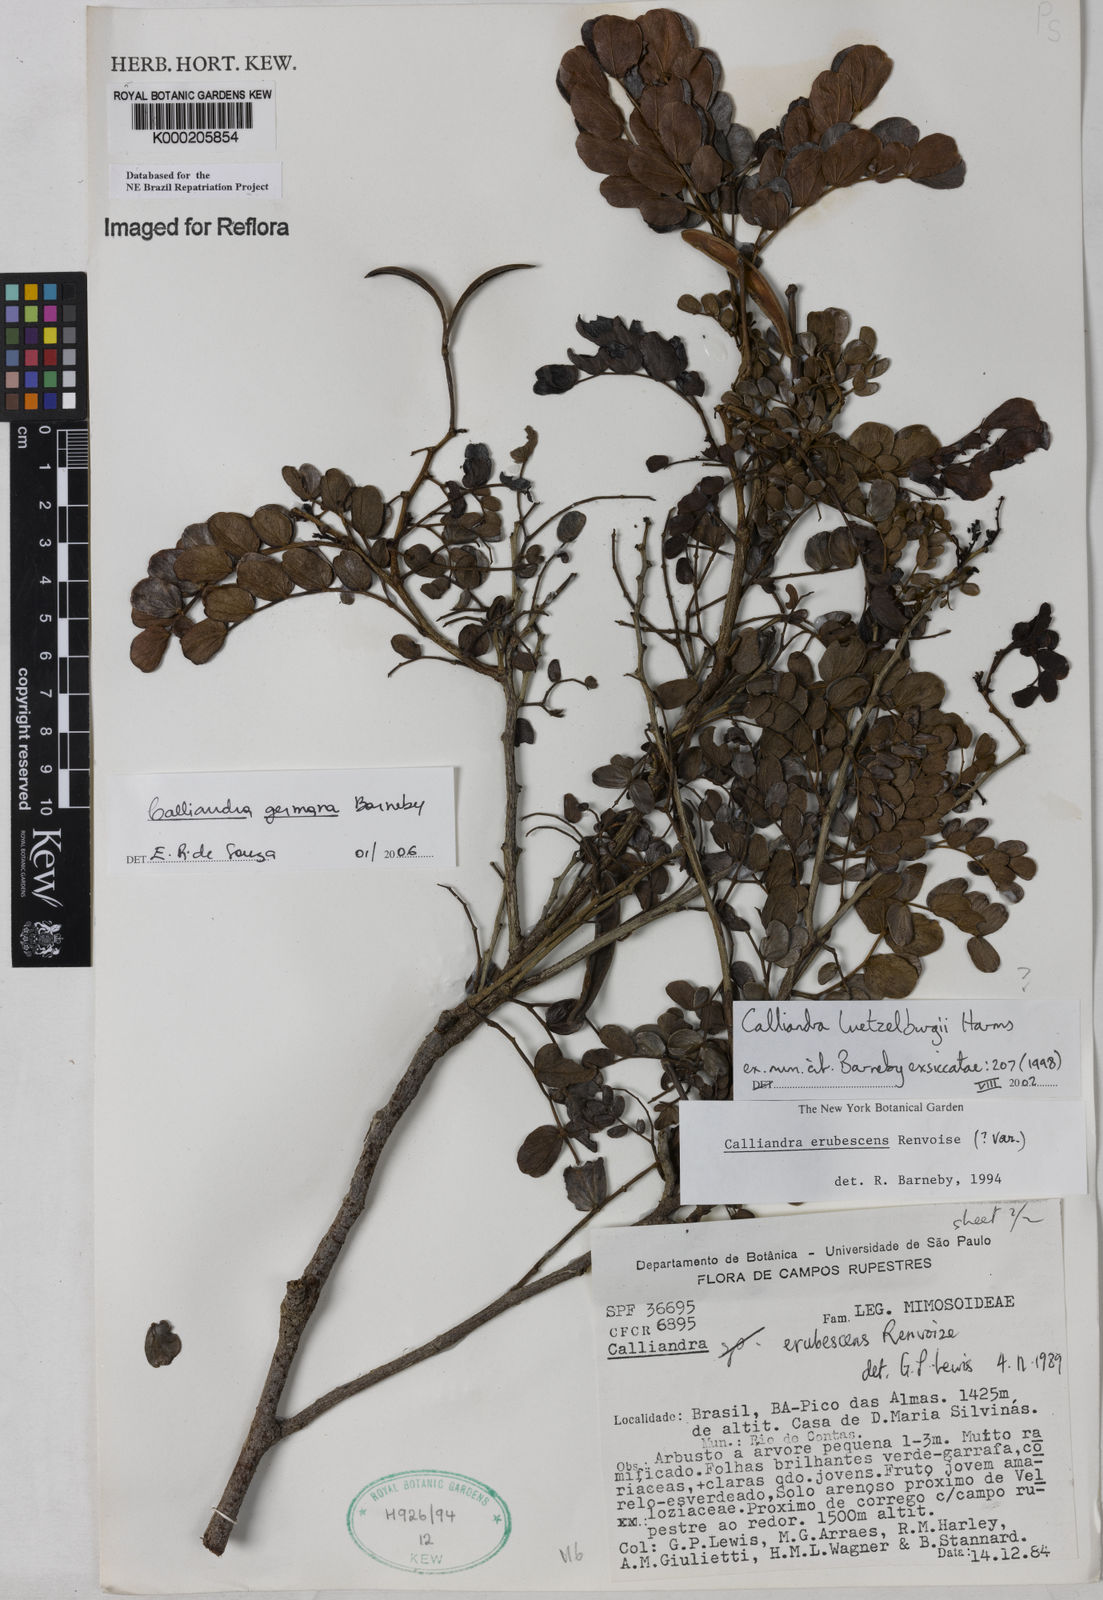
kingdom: Plantae
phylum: Tracheophyta
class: Magnoliopsida
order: Fabales
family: Fabaceae
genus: Calliandra
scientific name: Calliandra luetzelburgii
